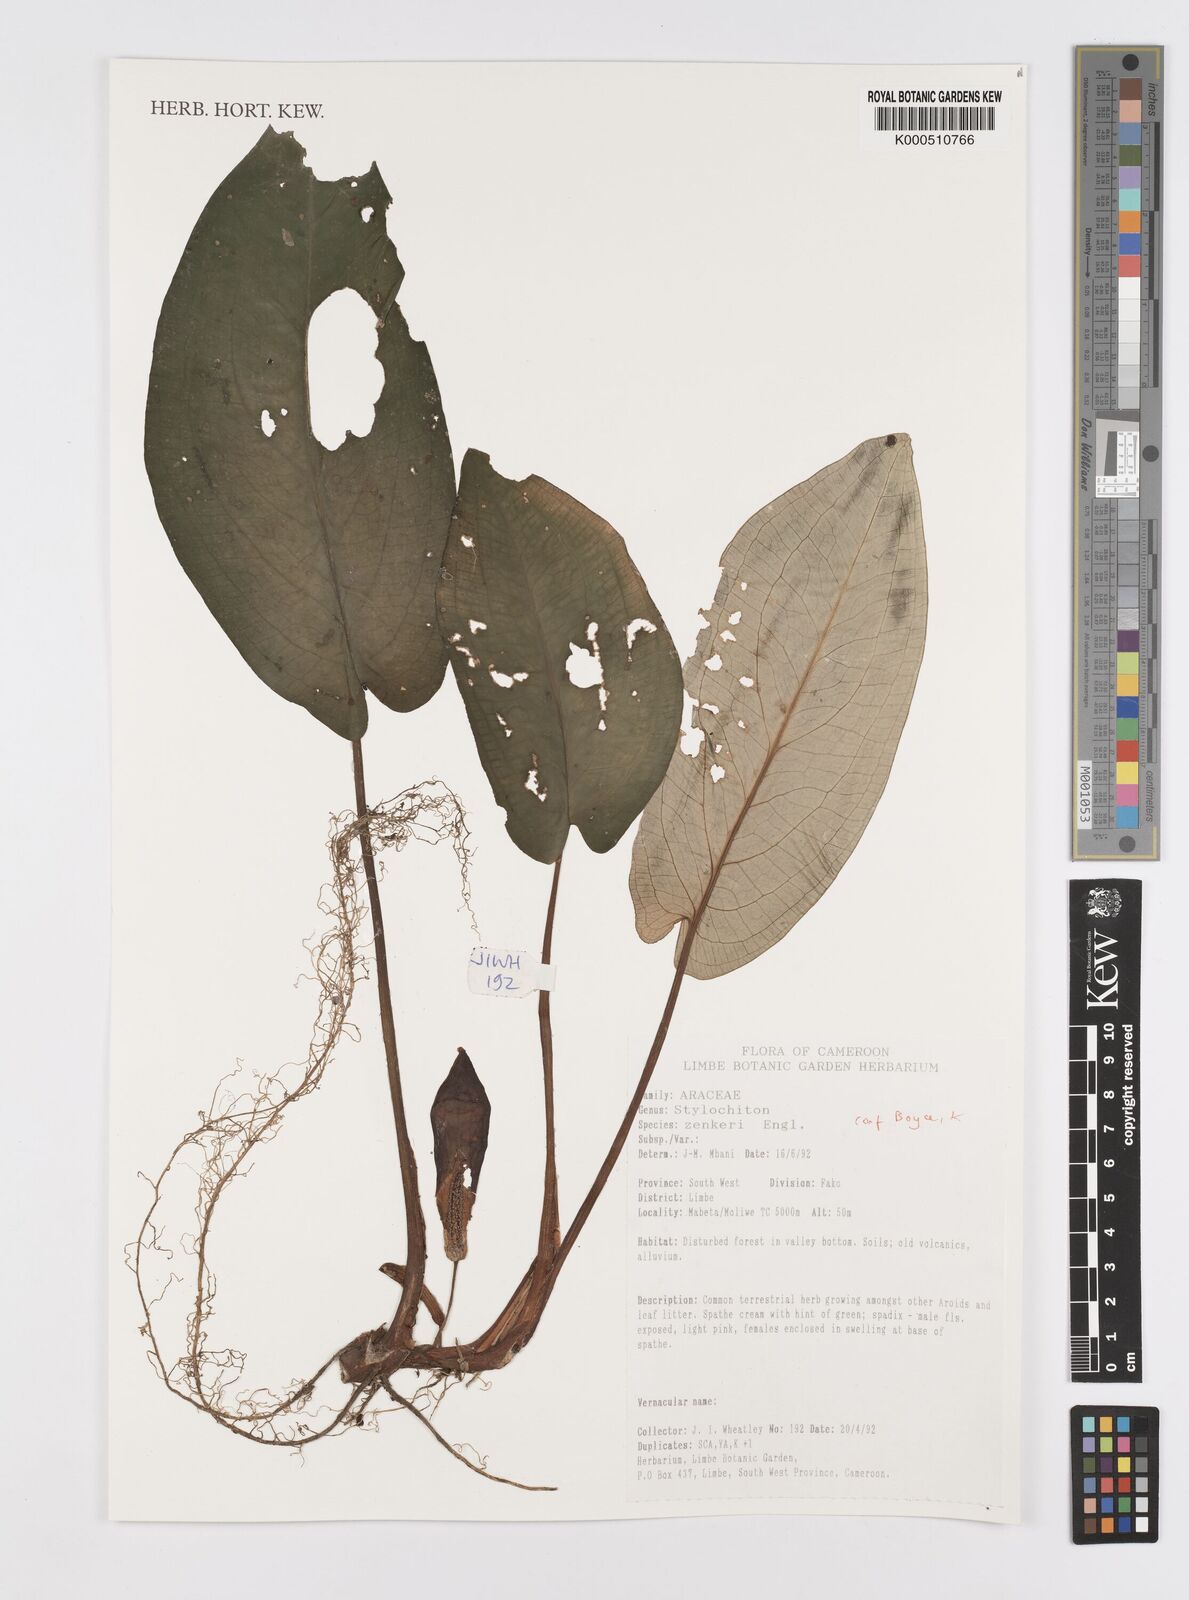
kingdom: Plantae
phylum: Tracheophyta
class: Liliopsida
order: Alismatales
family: Araceae
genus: Stylochaeton
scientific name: Stylochaeton zenkeri
